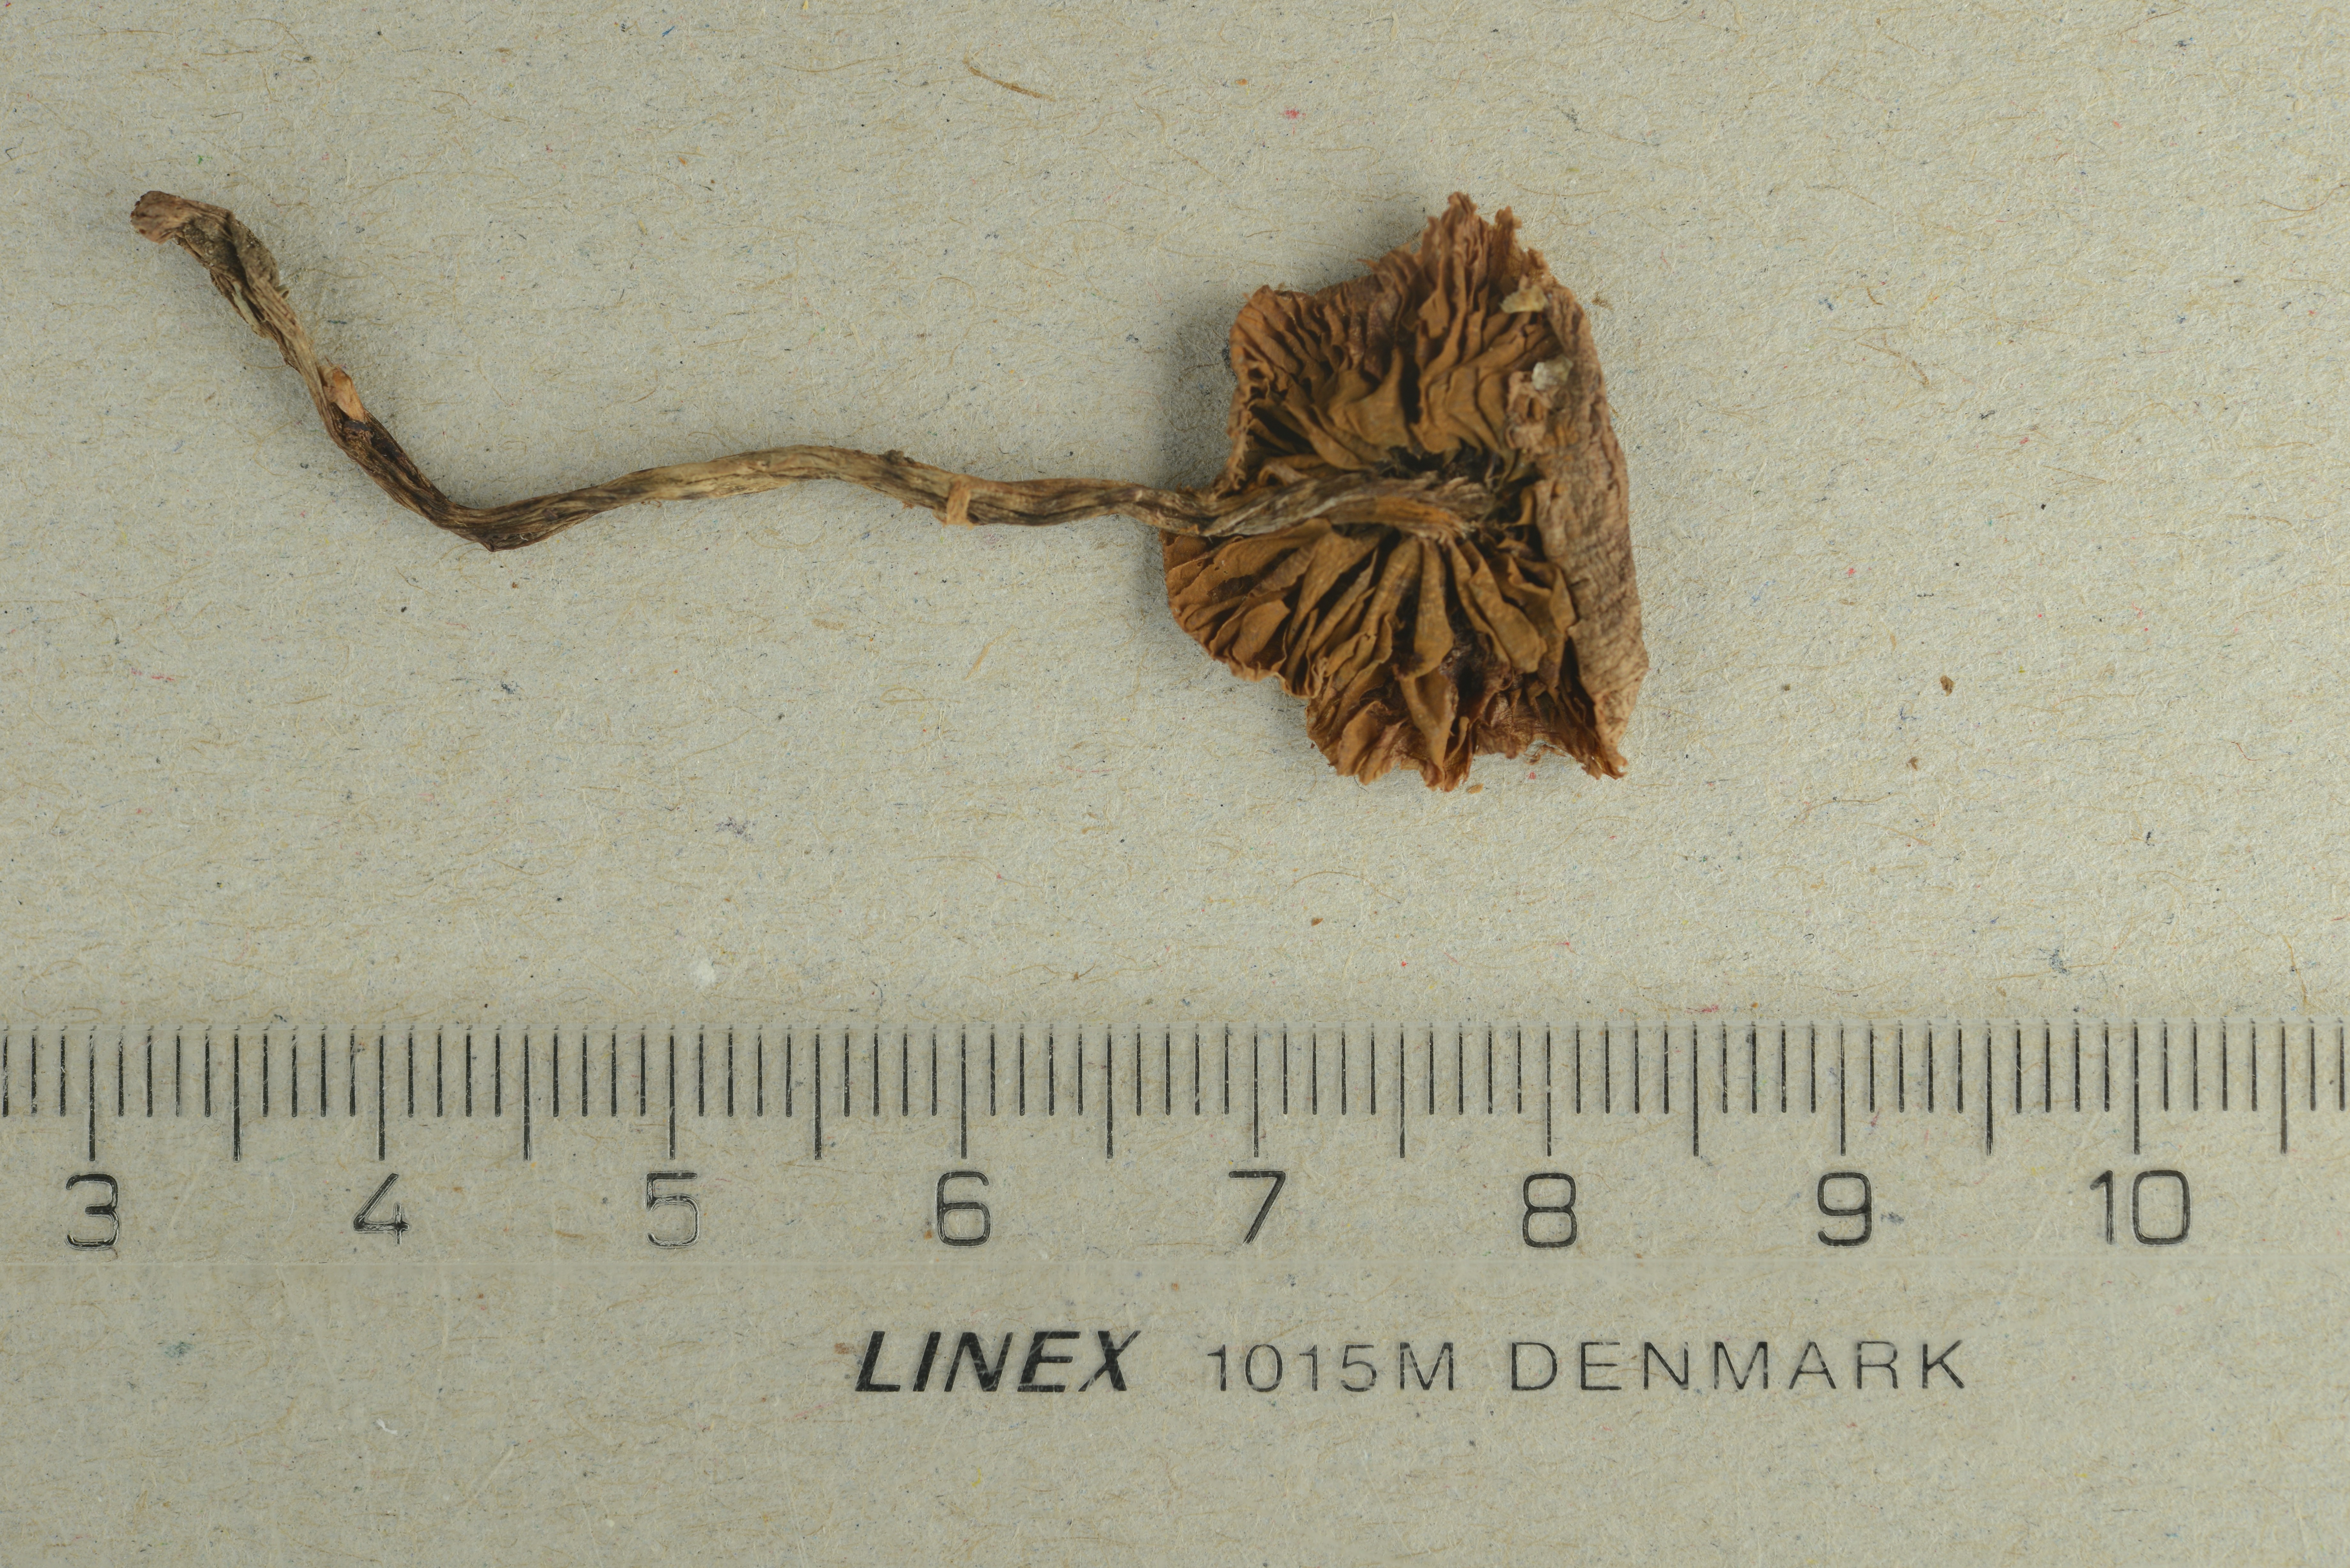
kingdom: Fungi
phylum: Basidiomycota
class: Agaricomycetes
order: Agaricales
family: Cortinariaceae
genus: Cortinarius
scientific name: Cortinarius umbrinolens
